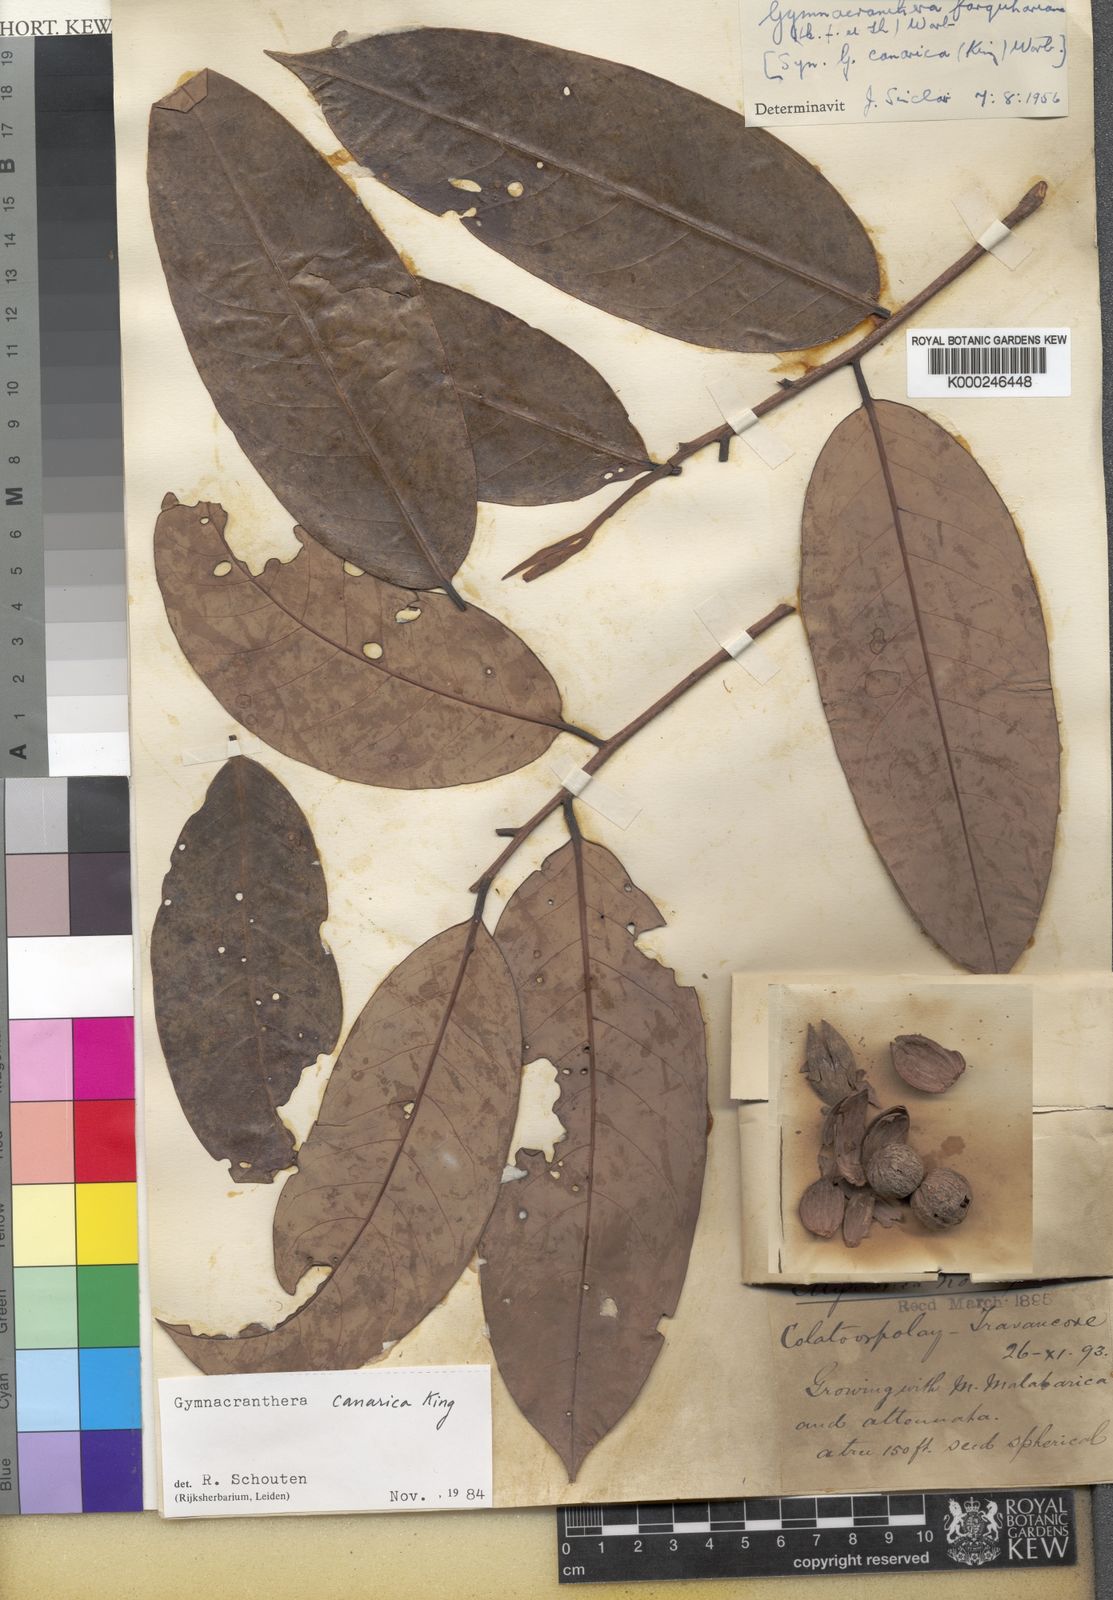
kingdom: Plantae
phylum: Tracheophyta
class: Magnoliopsida
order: Magnoliales
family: Myristicaceae
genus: Gymnacranthera
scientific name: Gymnacranthera canarica
